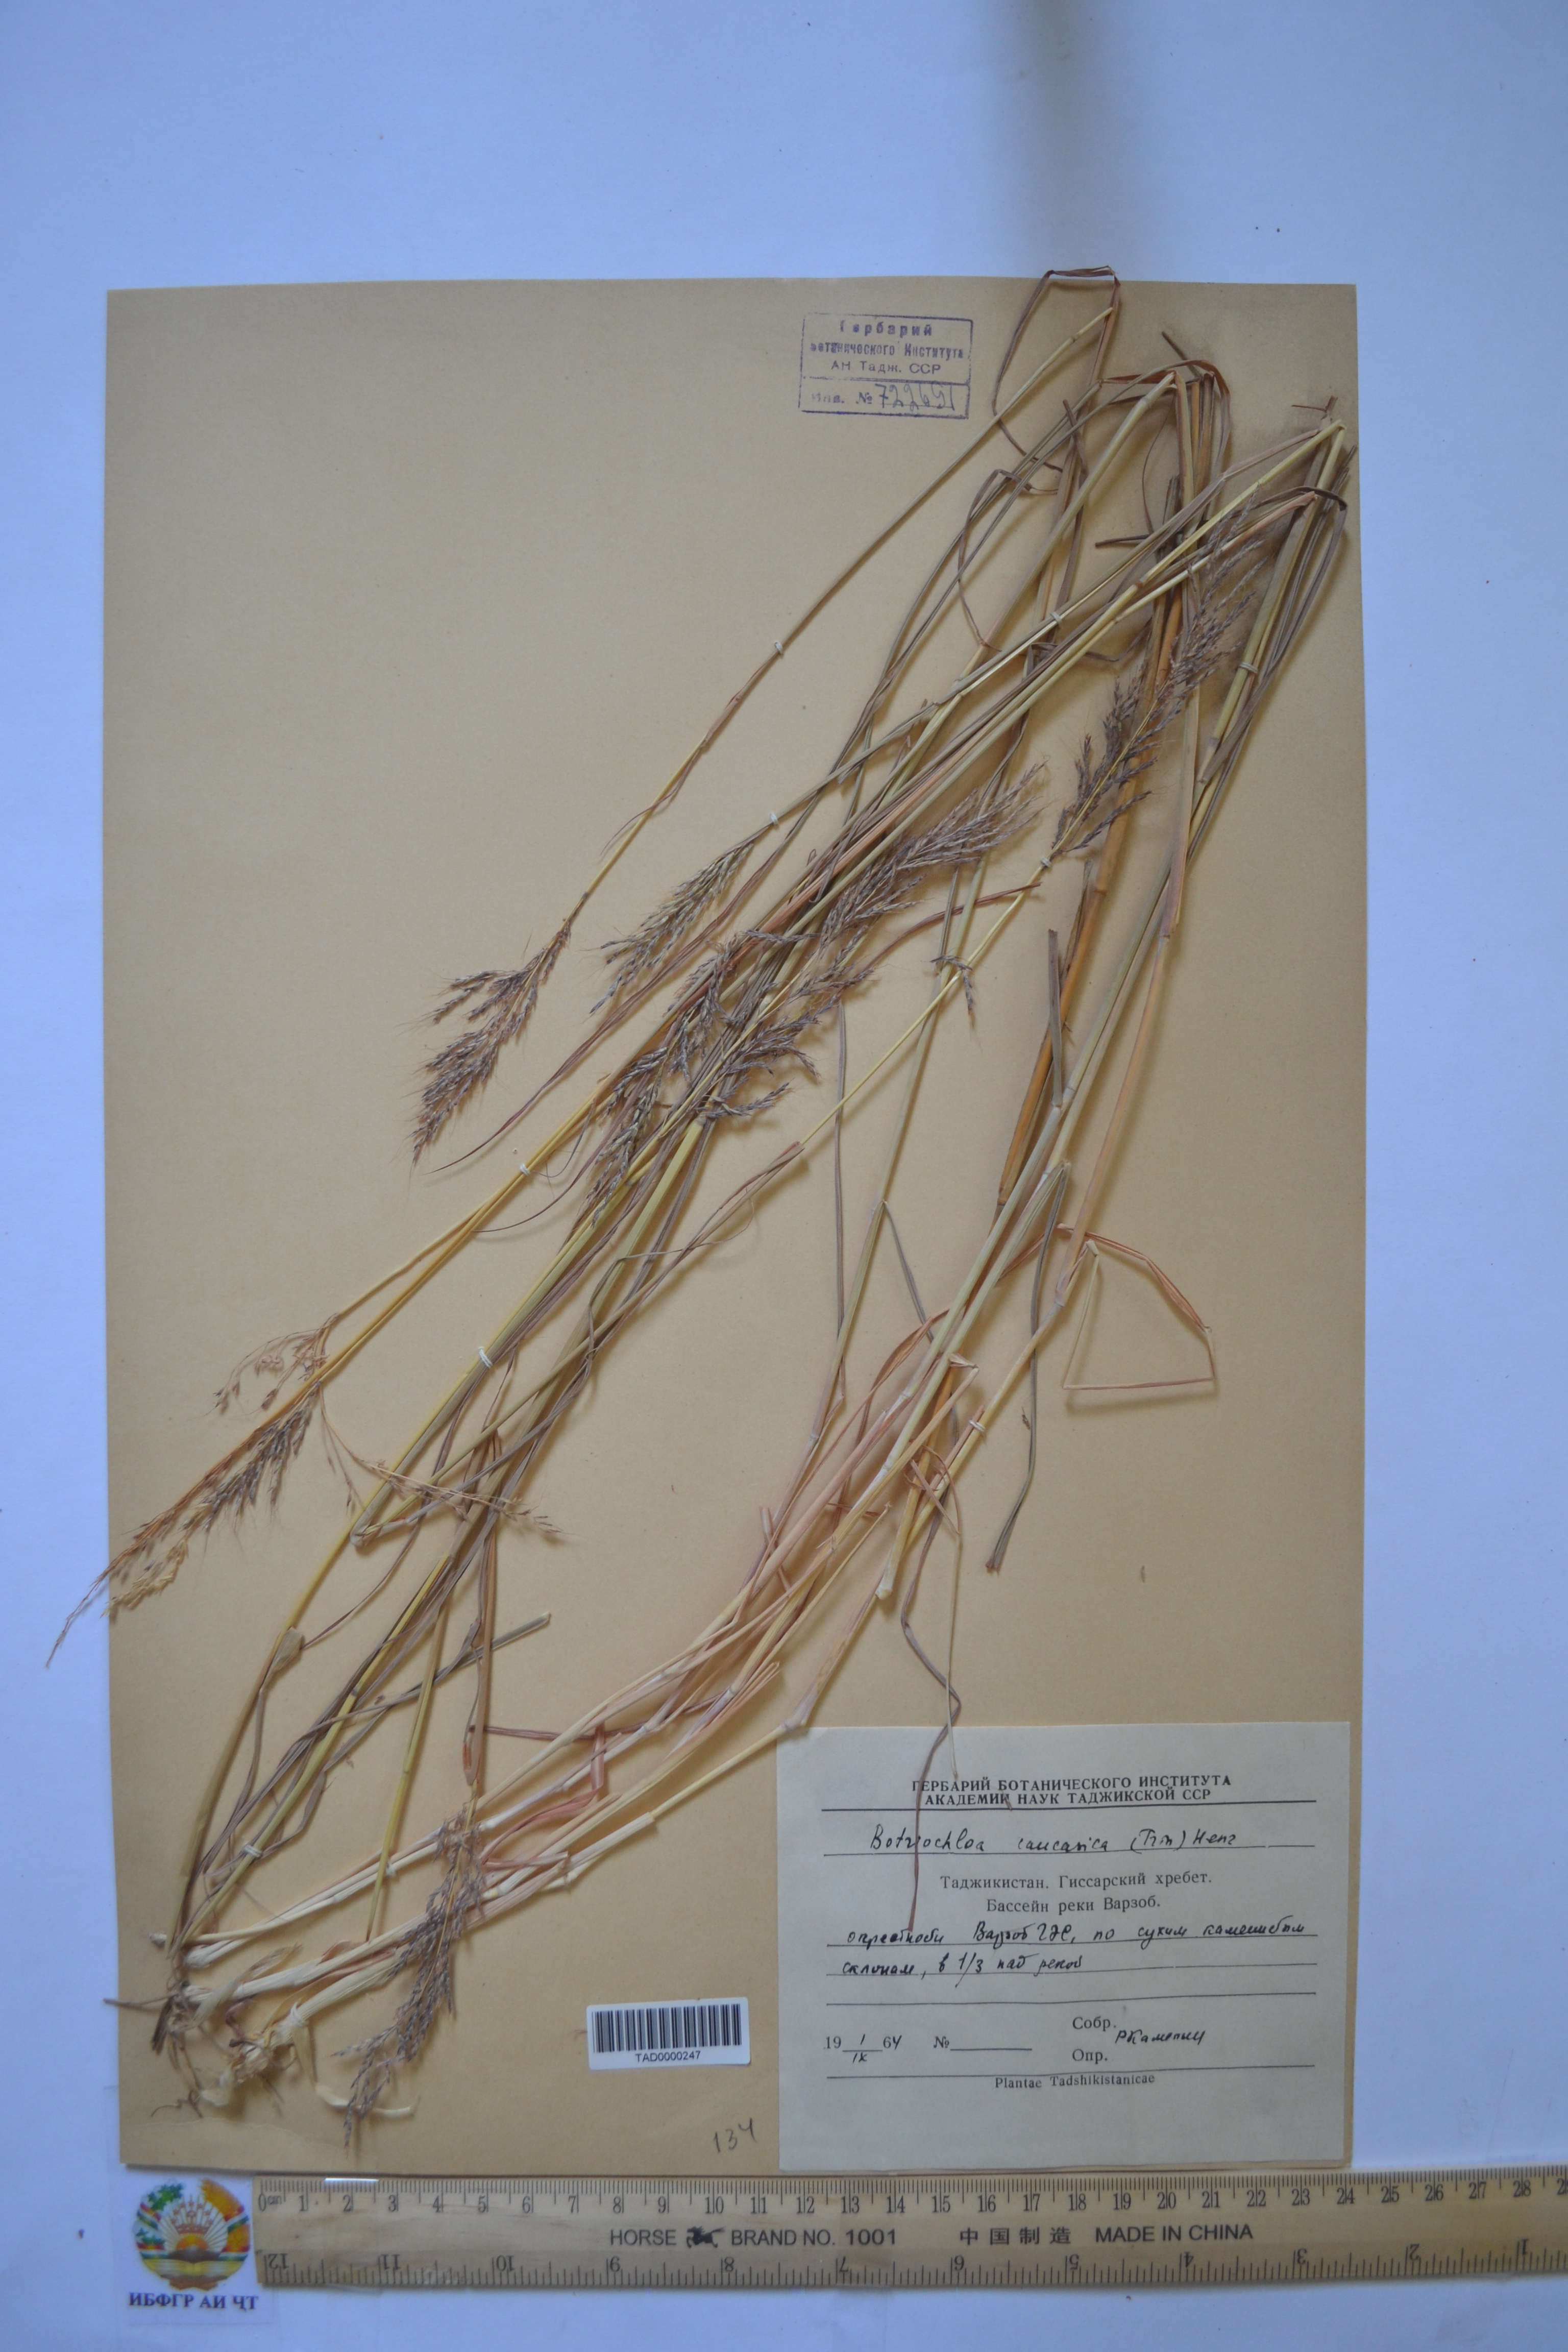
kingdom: Plantae
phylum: Tracheophyta
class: Liliopsida
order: Poales
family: Poaceae
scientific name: Poaceae
